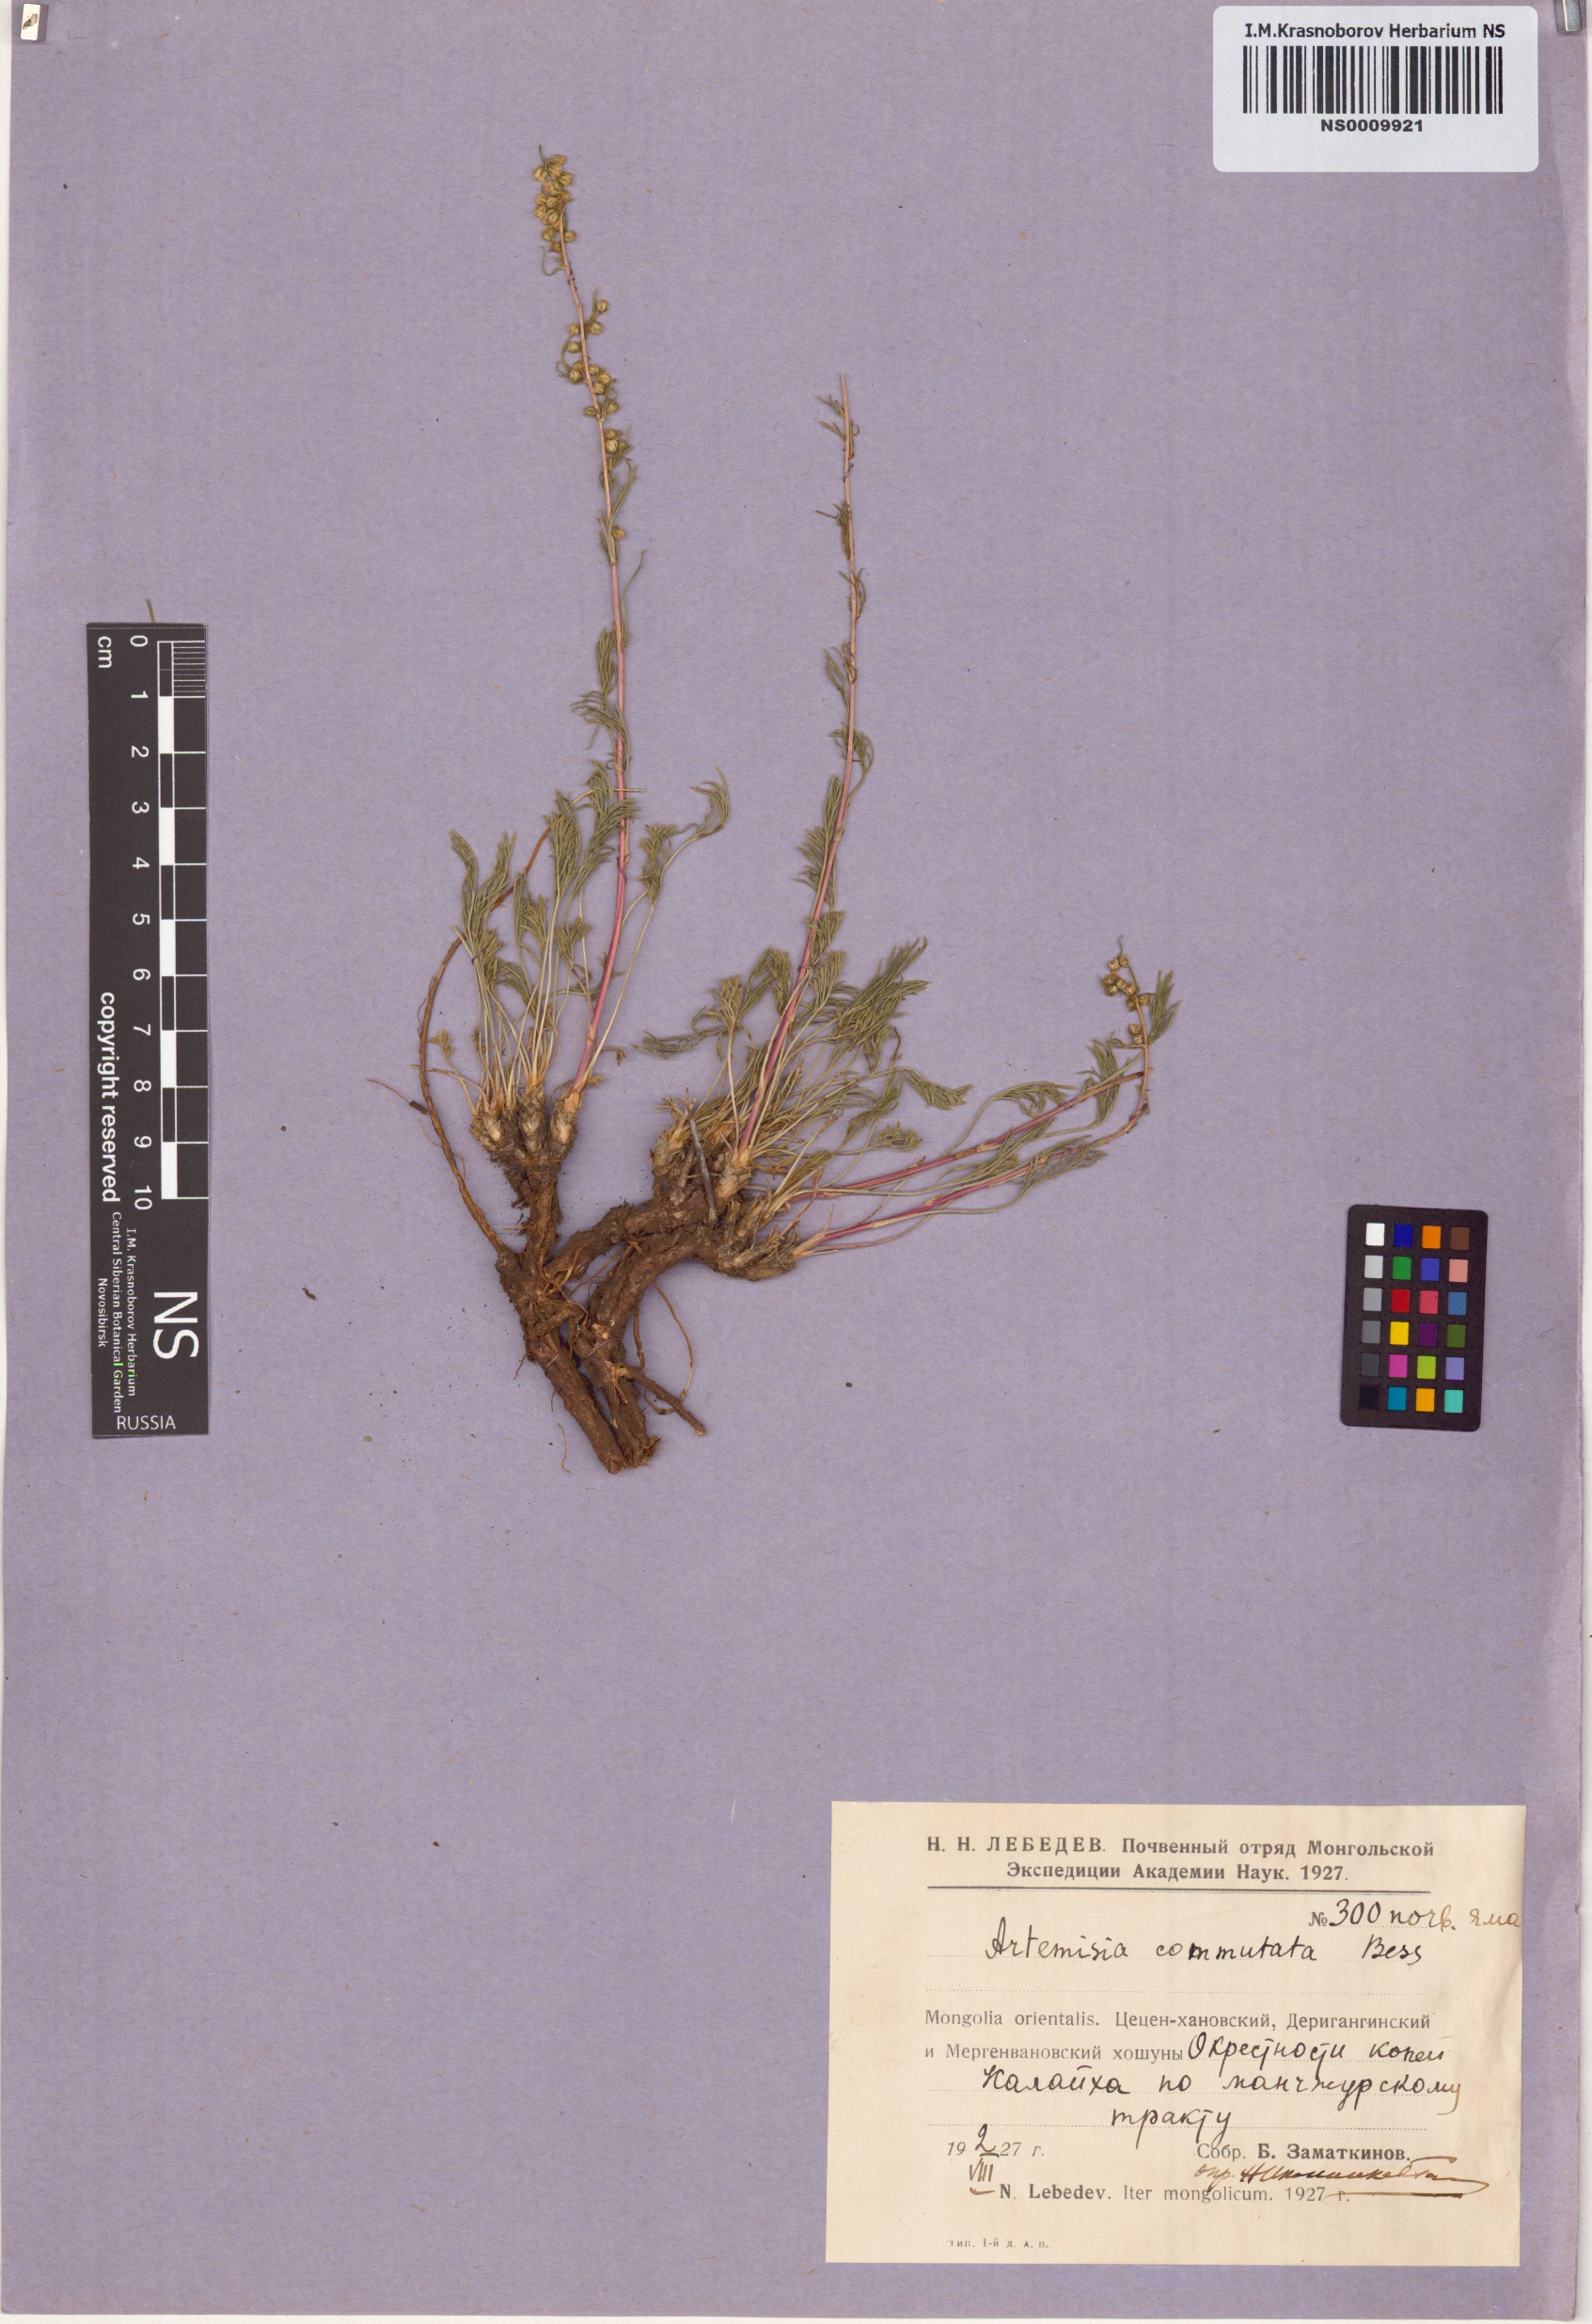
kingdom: Plantae
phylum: Tracheophyta
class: Magnoliopsida
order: Asterales
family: Asteraceae
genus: Artemisia
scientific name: Artemisia pubescens
